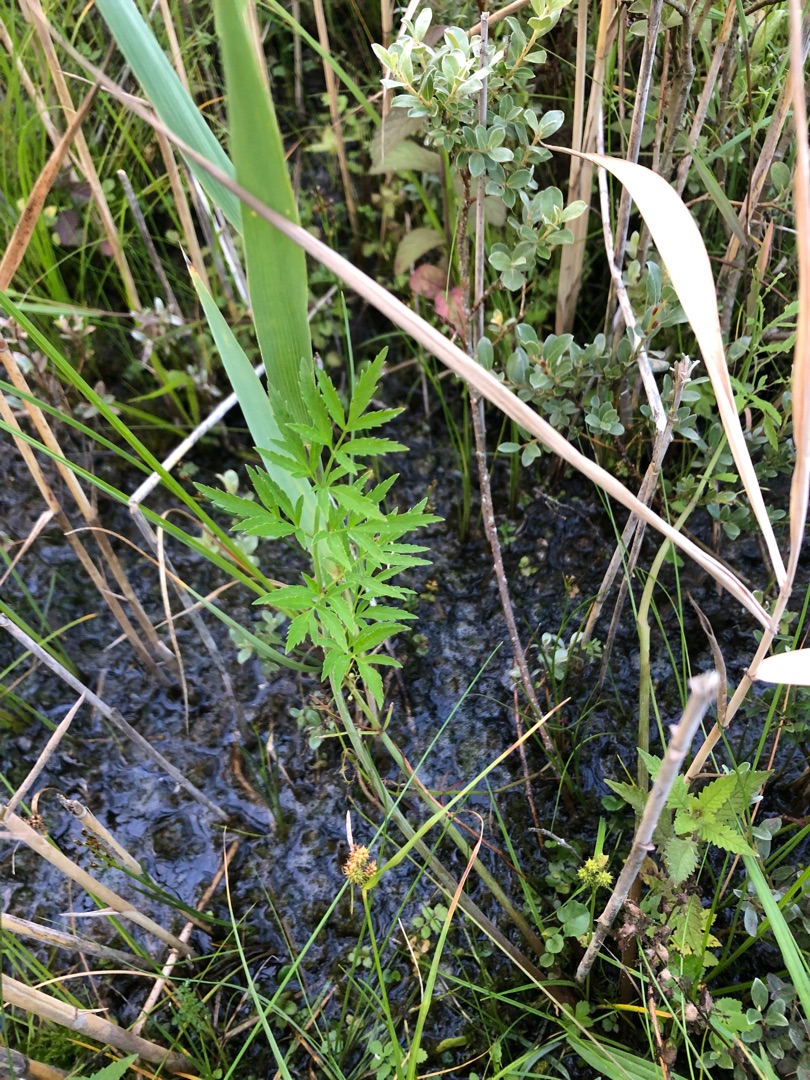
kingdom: Plantae
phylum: Tracheophyta
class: Magnoliopsida
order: Apiales
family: Apiaceae
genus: Cicuta
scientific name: Cicuta virosa
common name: Gifttyde
